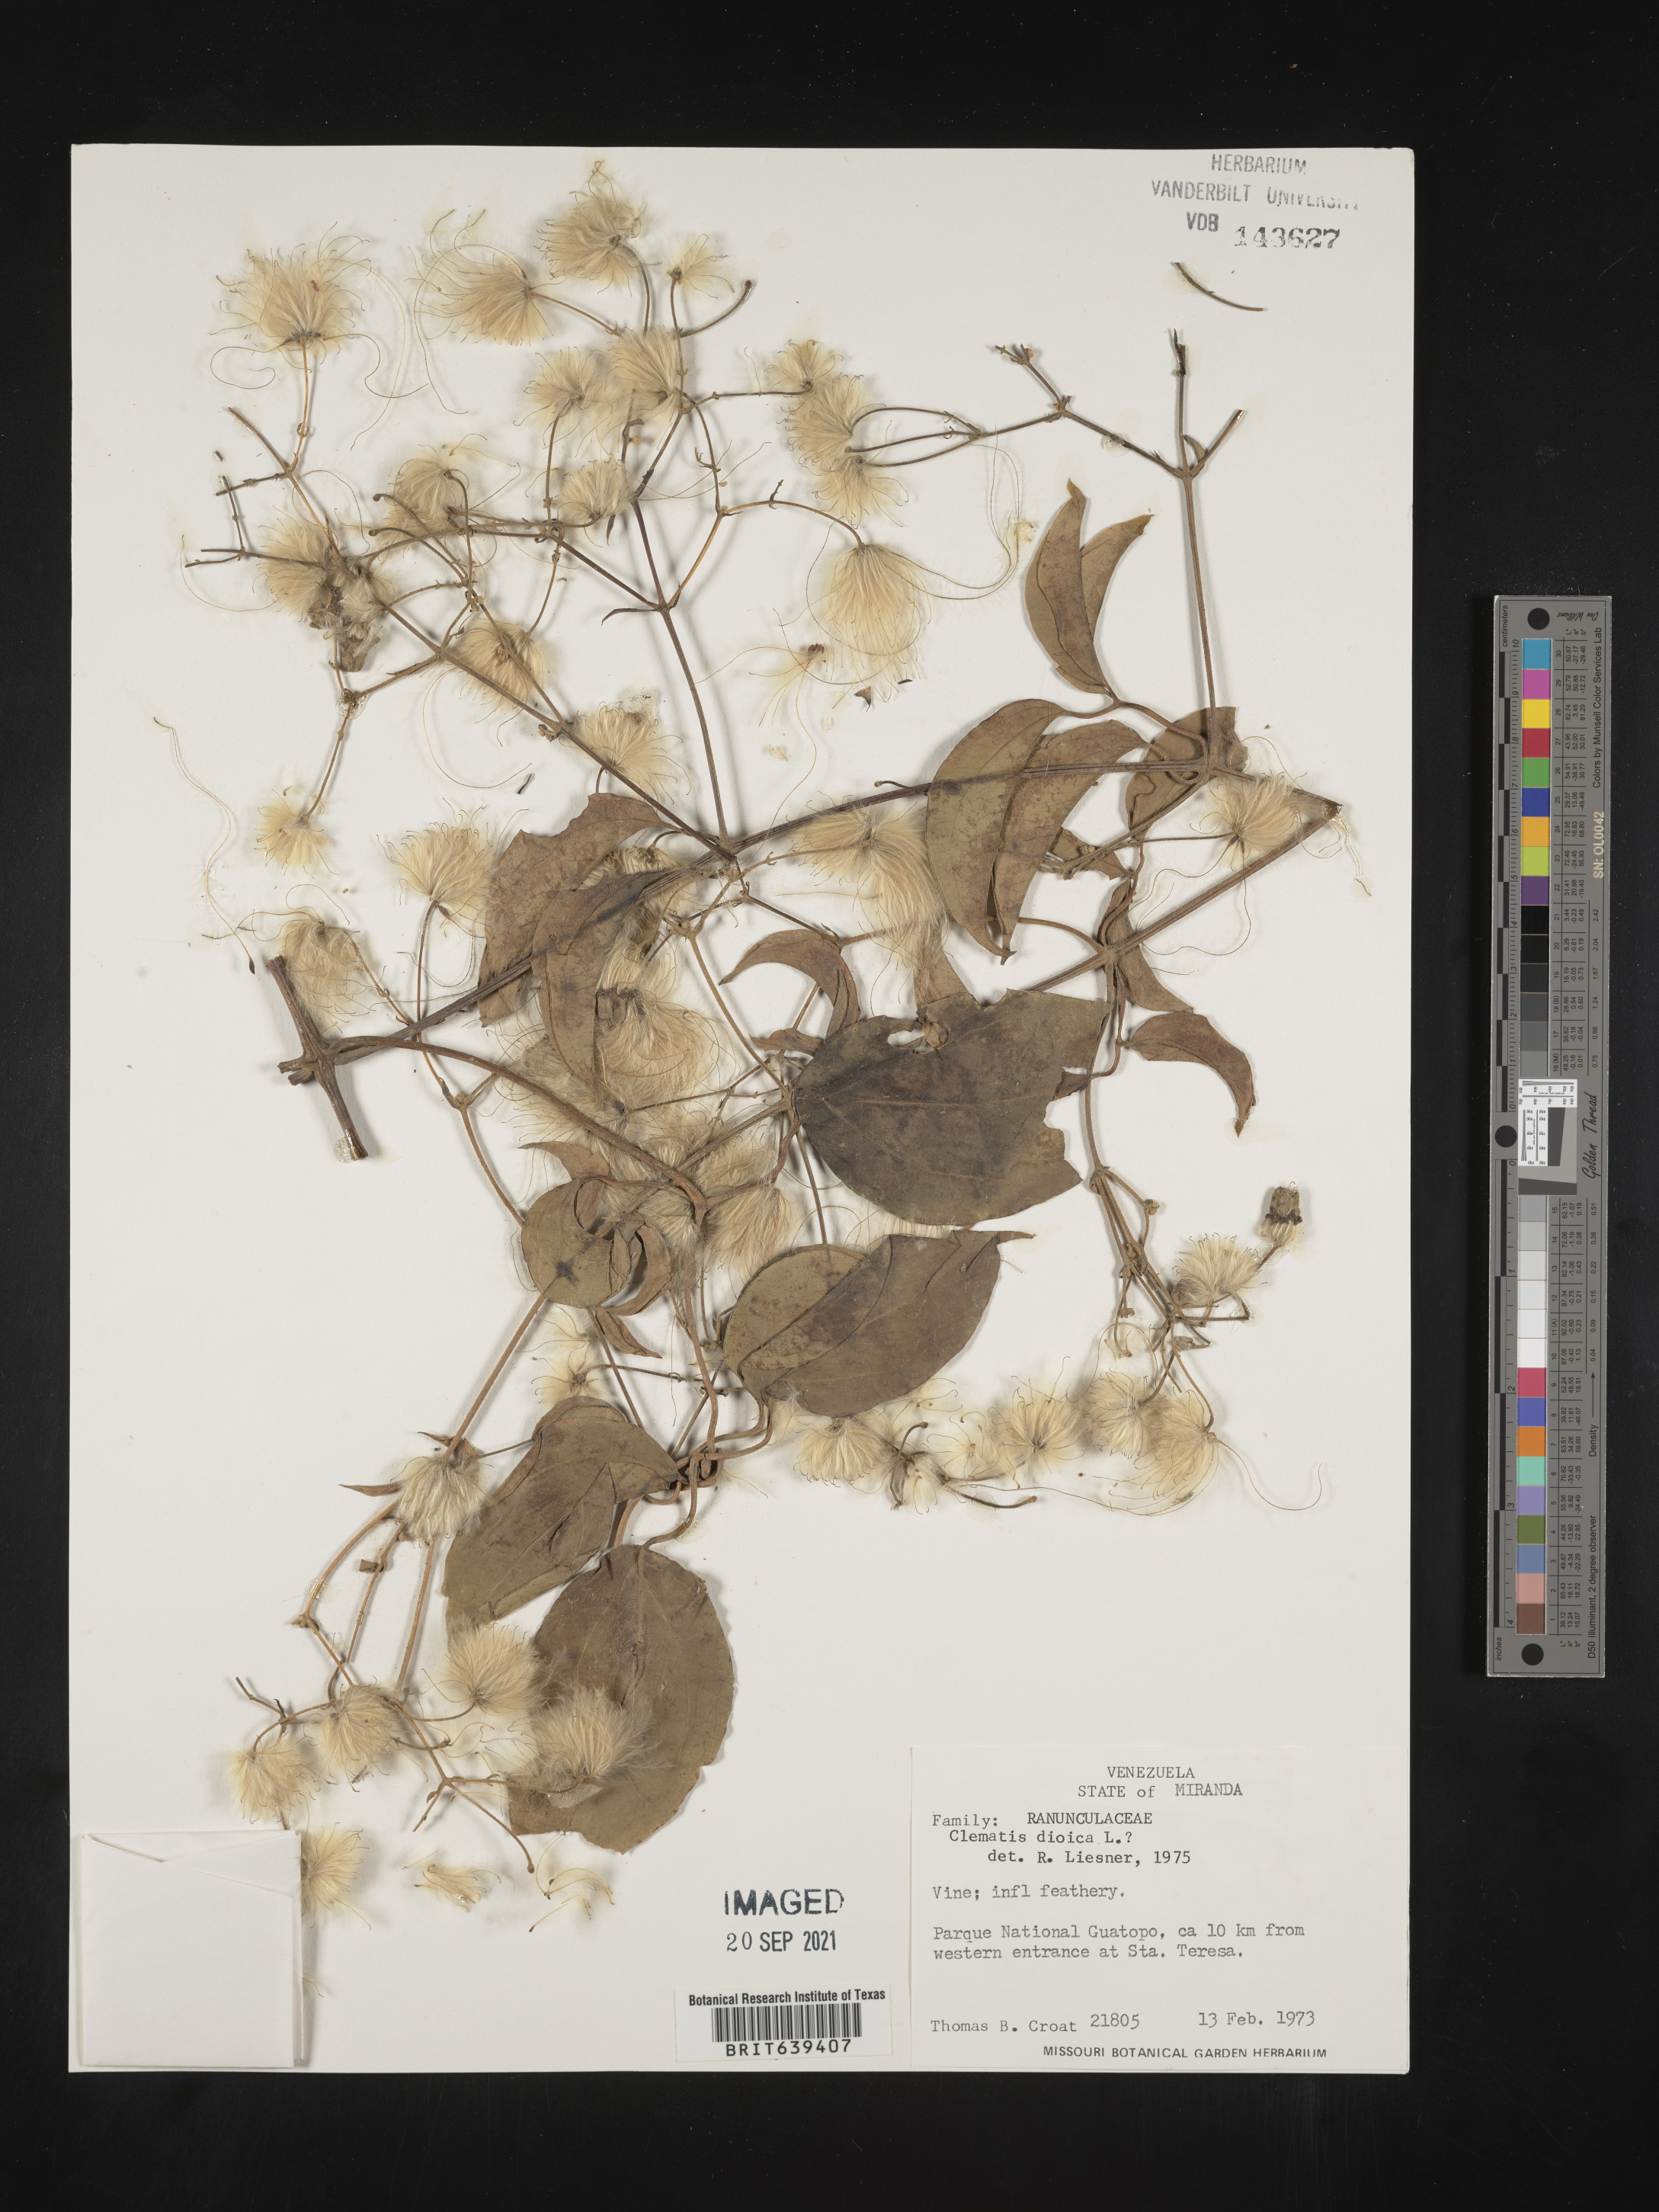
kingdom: Plantae
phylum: Tracheophyta
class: Magnoliopsida
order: Ranunculales
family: Ranunculaceae
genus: Clematis
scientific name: Clematis
